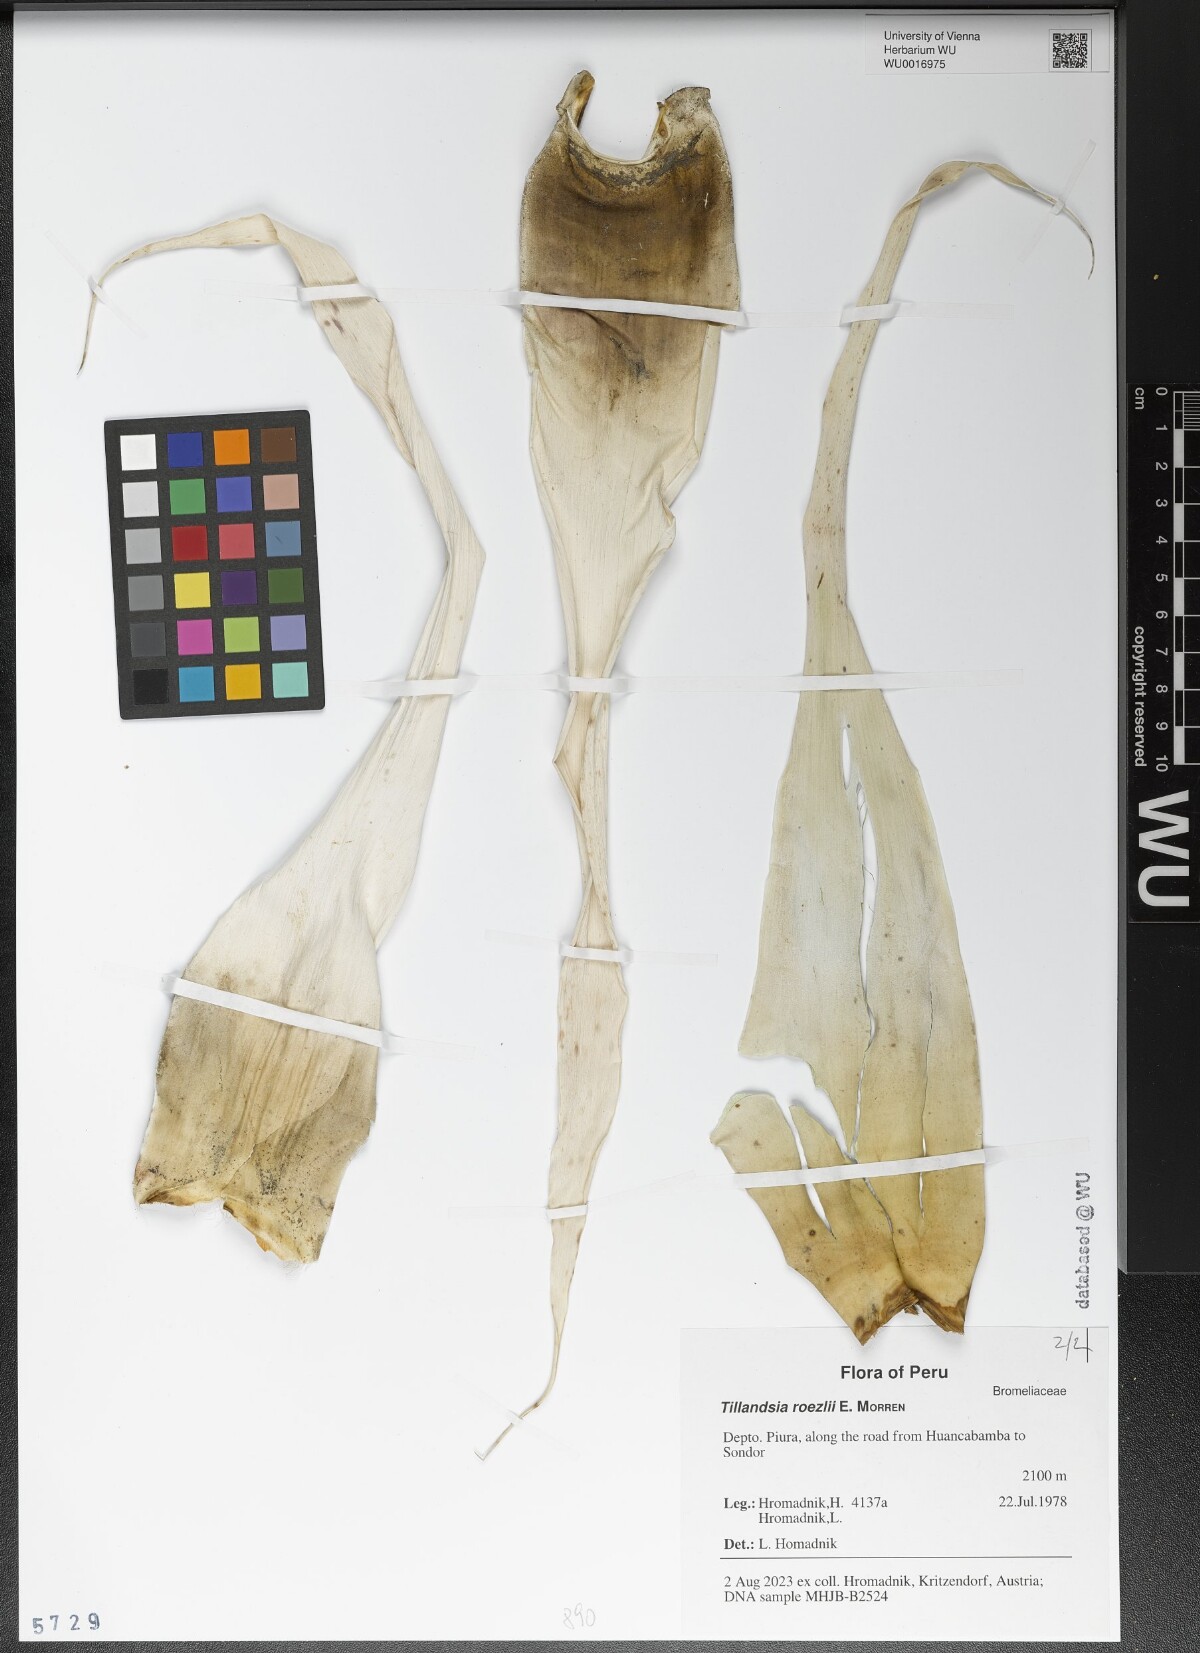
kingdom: Plantae
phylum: Tracheophyta
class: Liliopsida
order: Poales
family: Bromeliaceae
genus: Tillandsia
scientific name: Tillandsia roezlii
